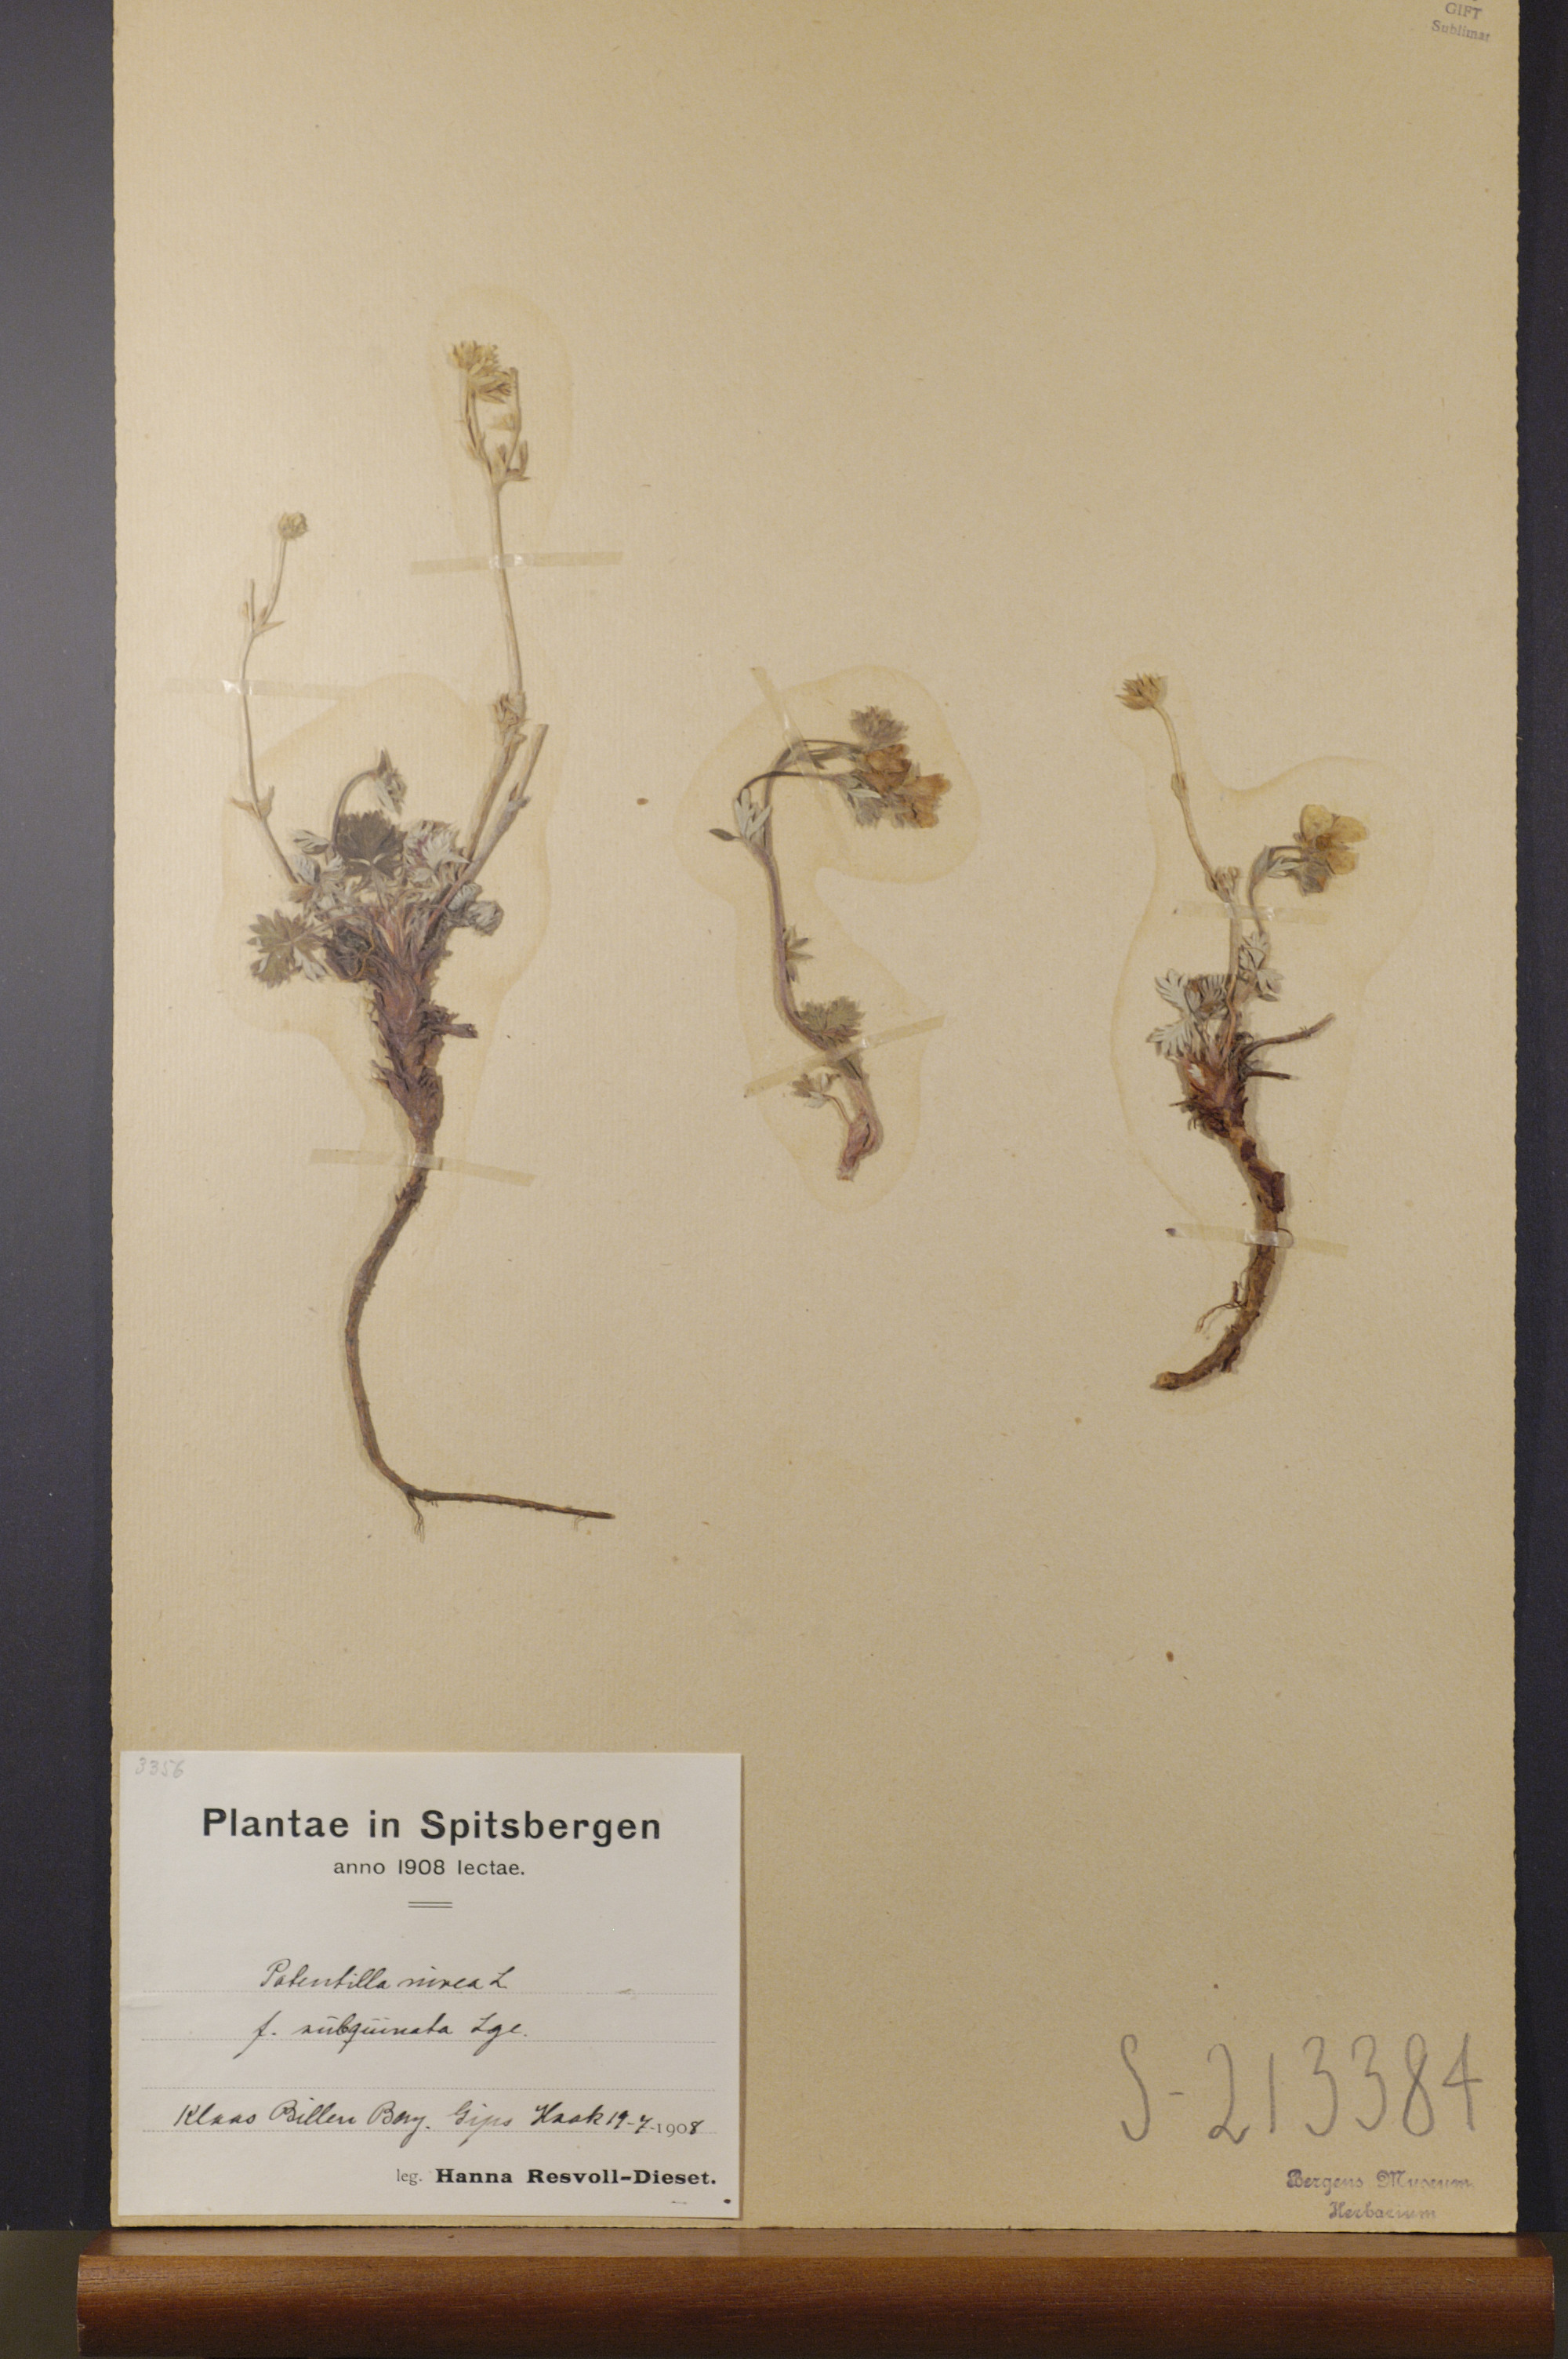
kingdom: Plantae
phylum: Tracheophyta
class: Magnoliopsida
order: Rosales
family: Rosaceae
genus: Potentilla
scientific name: Potentilla prostrata
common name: Prostrate cinquefoil
